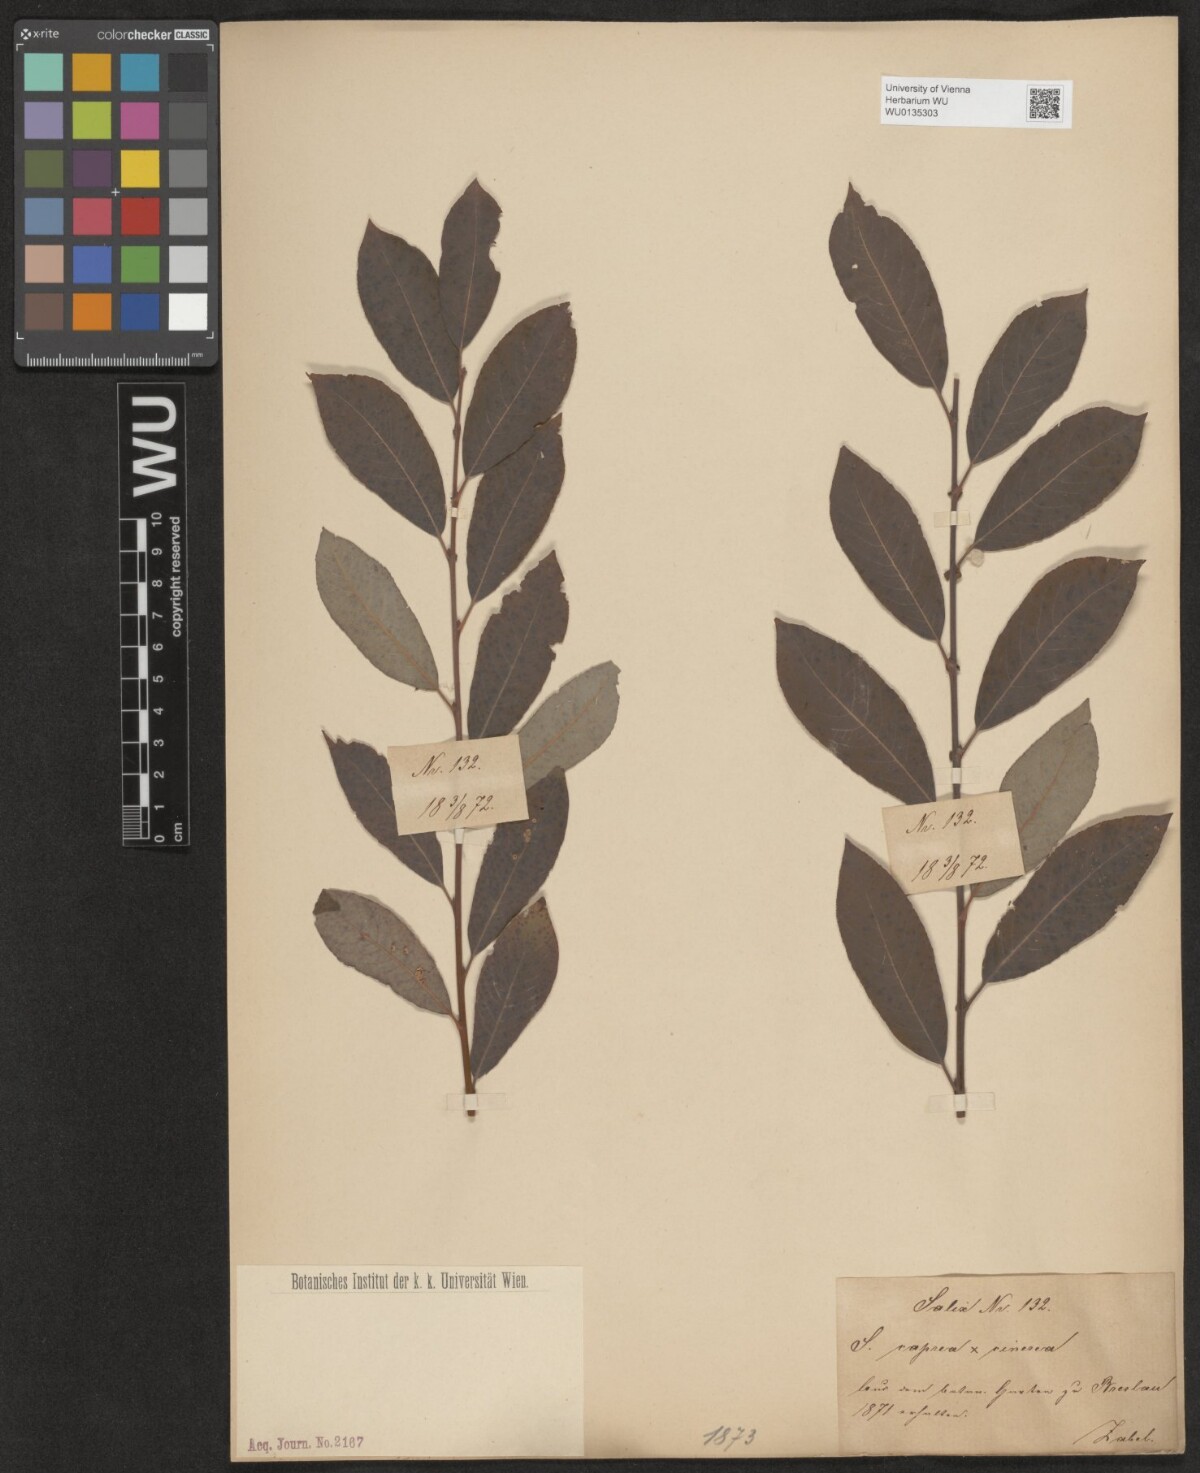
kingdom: Plantae
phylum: Tracheophyta
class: Magnoliopsida
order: Malpighiales
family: Salicaceae
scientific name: Salicaceae
